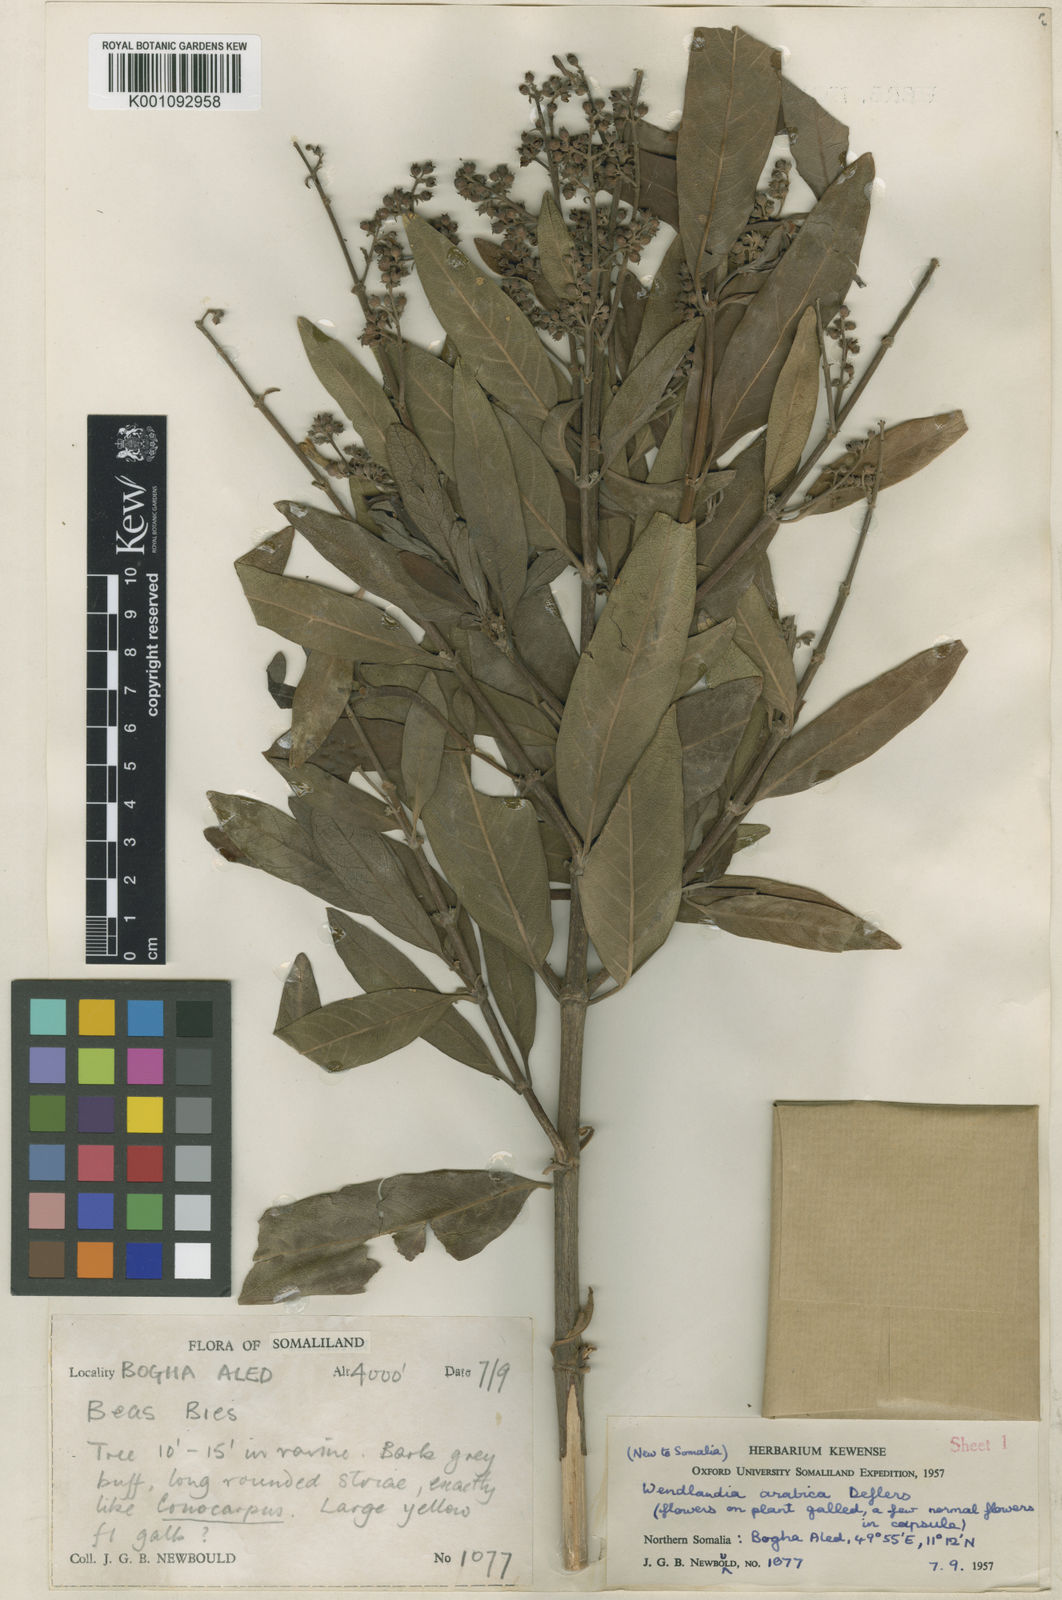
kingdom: Plantae
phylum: Tracheophyta
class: Magnoliopsida
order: Gentianales
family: Rubiaceae
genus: Wendlandia
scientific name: Wendlandia arabica
